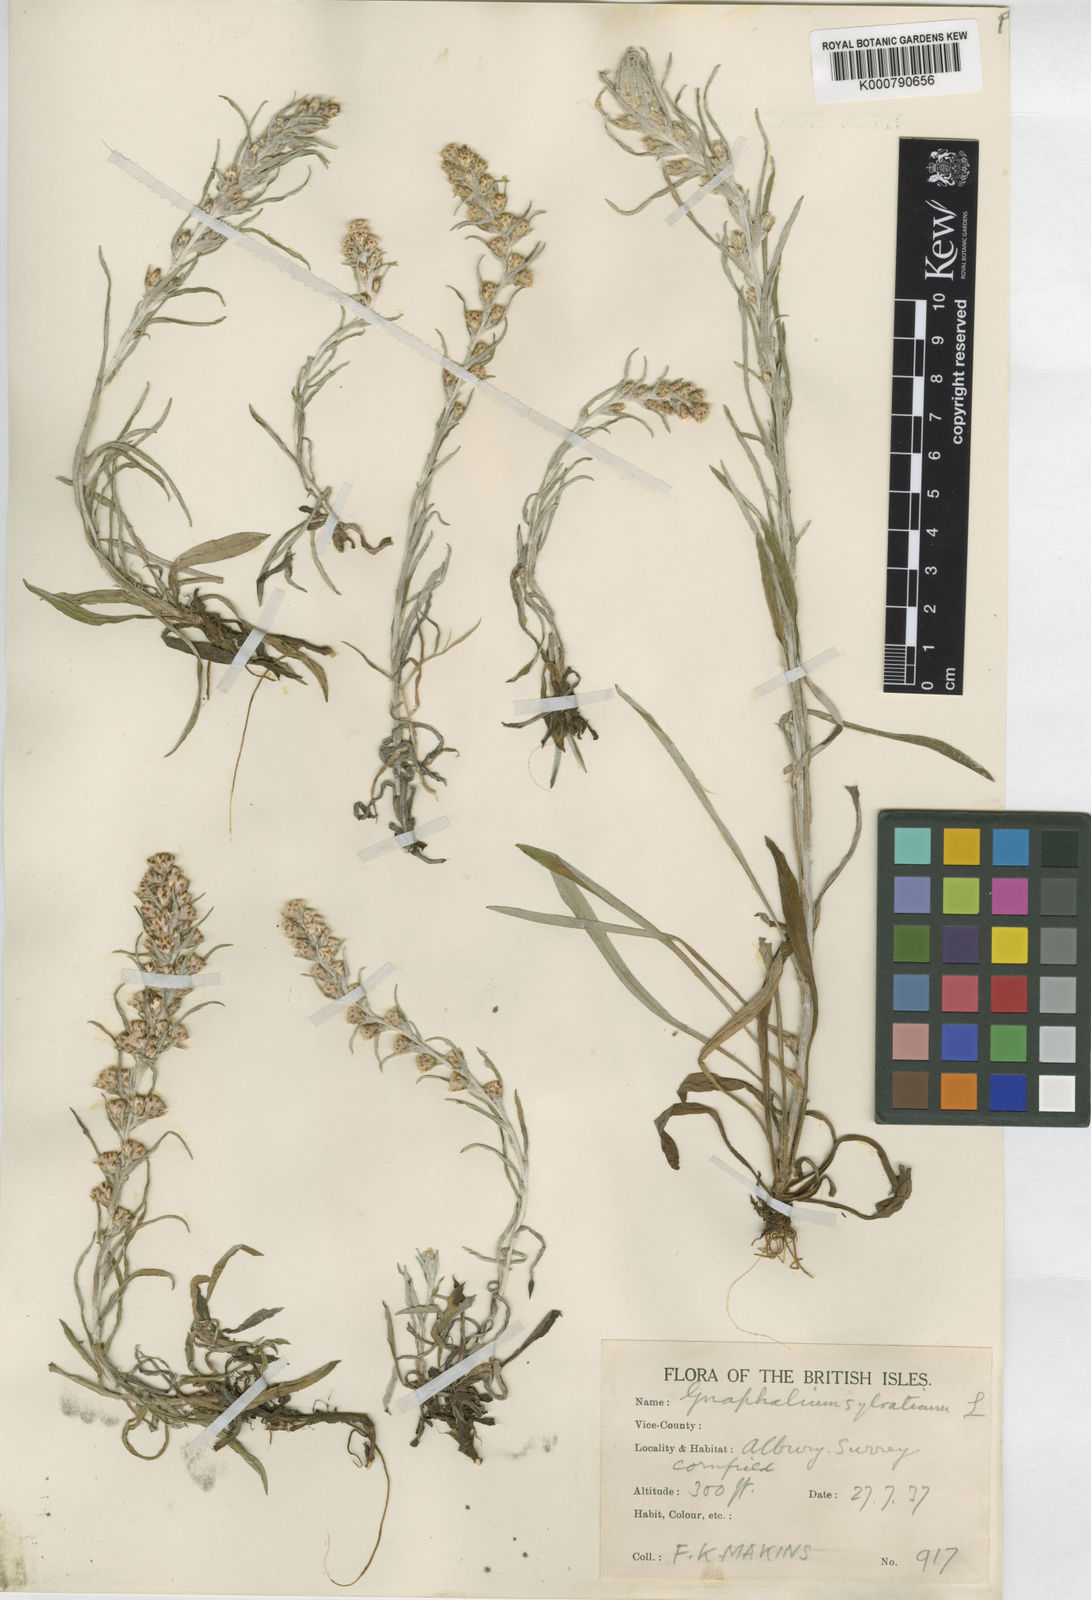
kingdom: Plantae
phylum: Tracheophyta
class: Magnoliopsida
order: Asterales
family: Asteraceae
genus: Omalotheca
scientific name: Omalotheca sylvatica
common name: Heath cudweed
